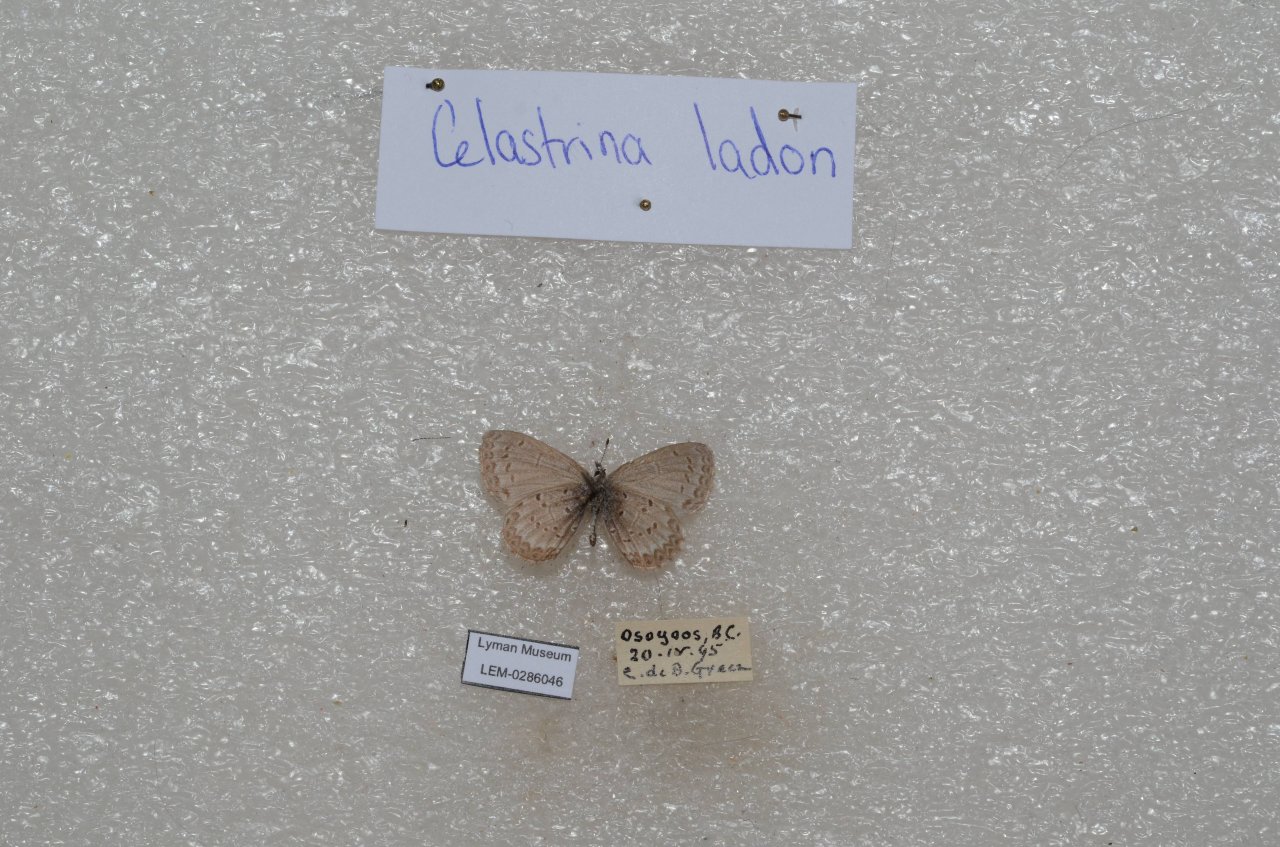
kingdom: Animalia
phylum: Arthropoda
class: Insecta
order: Lepidoptera
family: Lycaenidae
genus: Celastrina
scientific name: Celastrina
